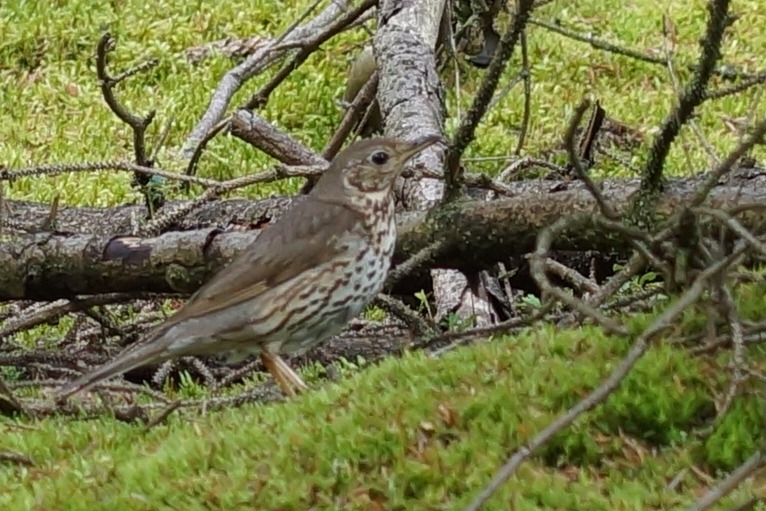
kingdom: Animalia
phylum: Chordata
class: Aves
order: Passeriformes
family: Turdidae
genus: Turdus
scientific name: Turdus philomelos
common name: Sangdrossel
